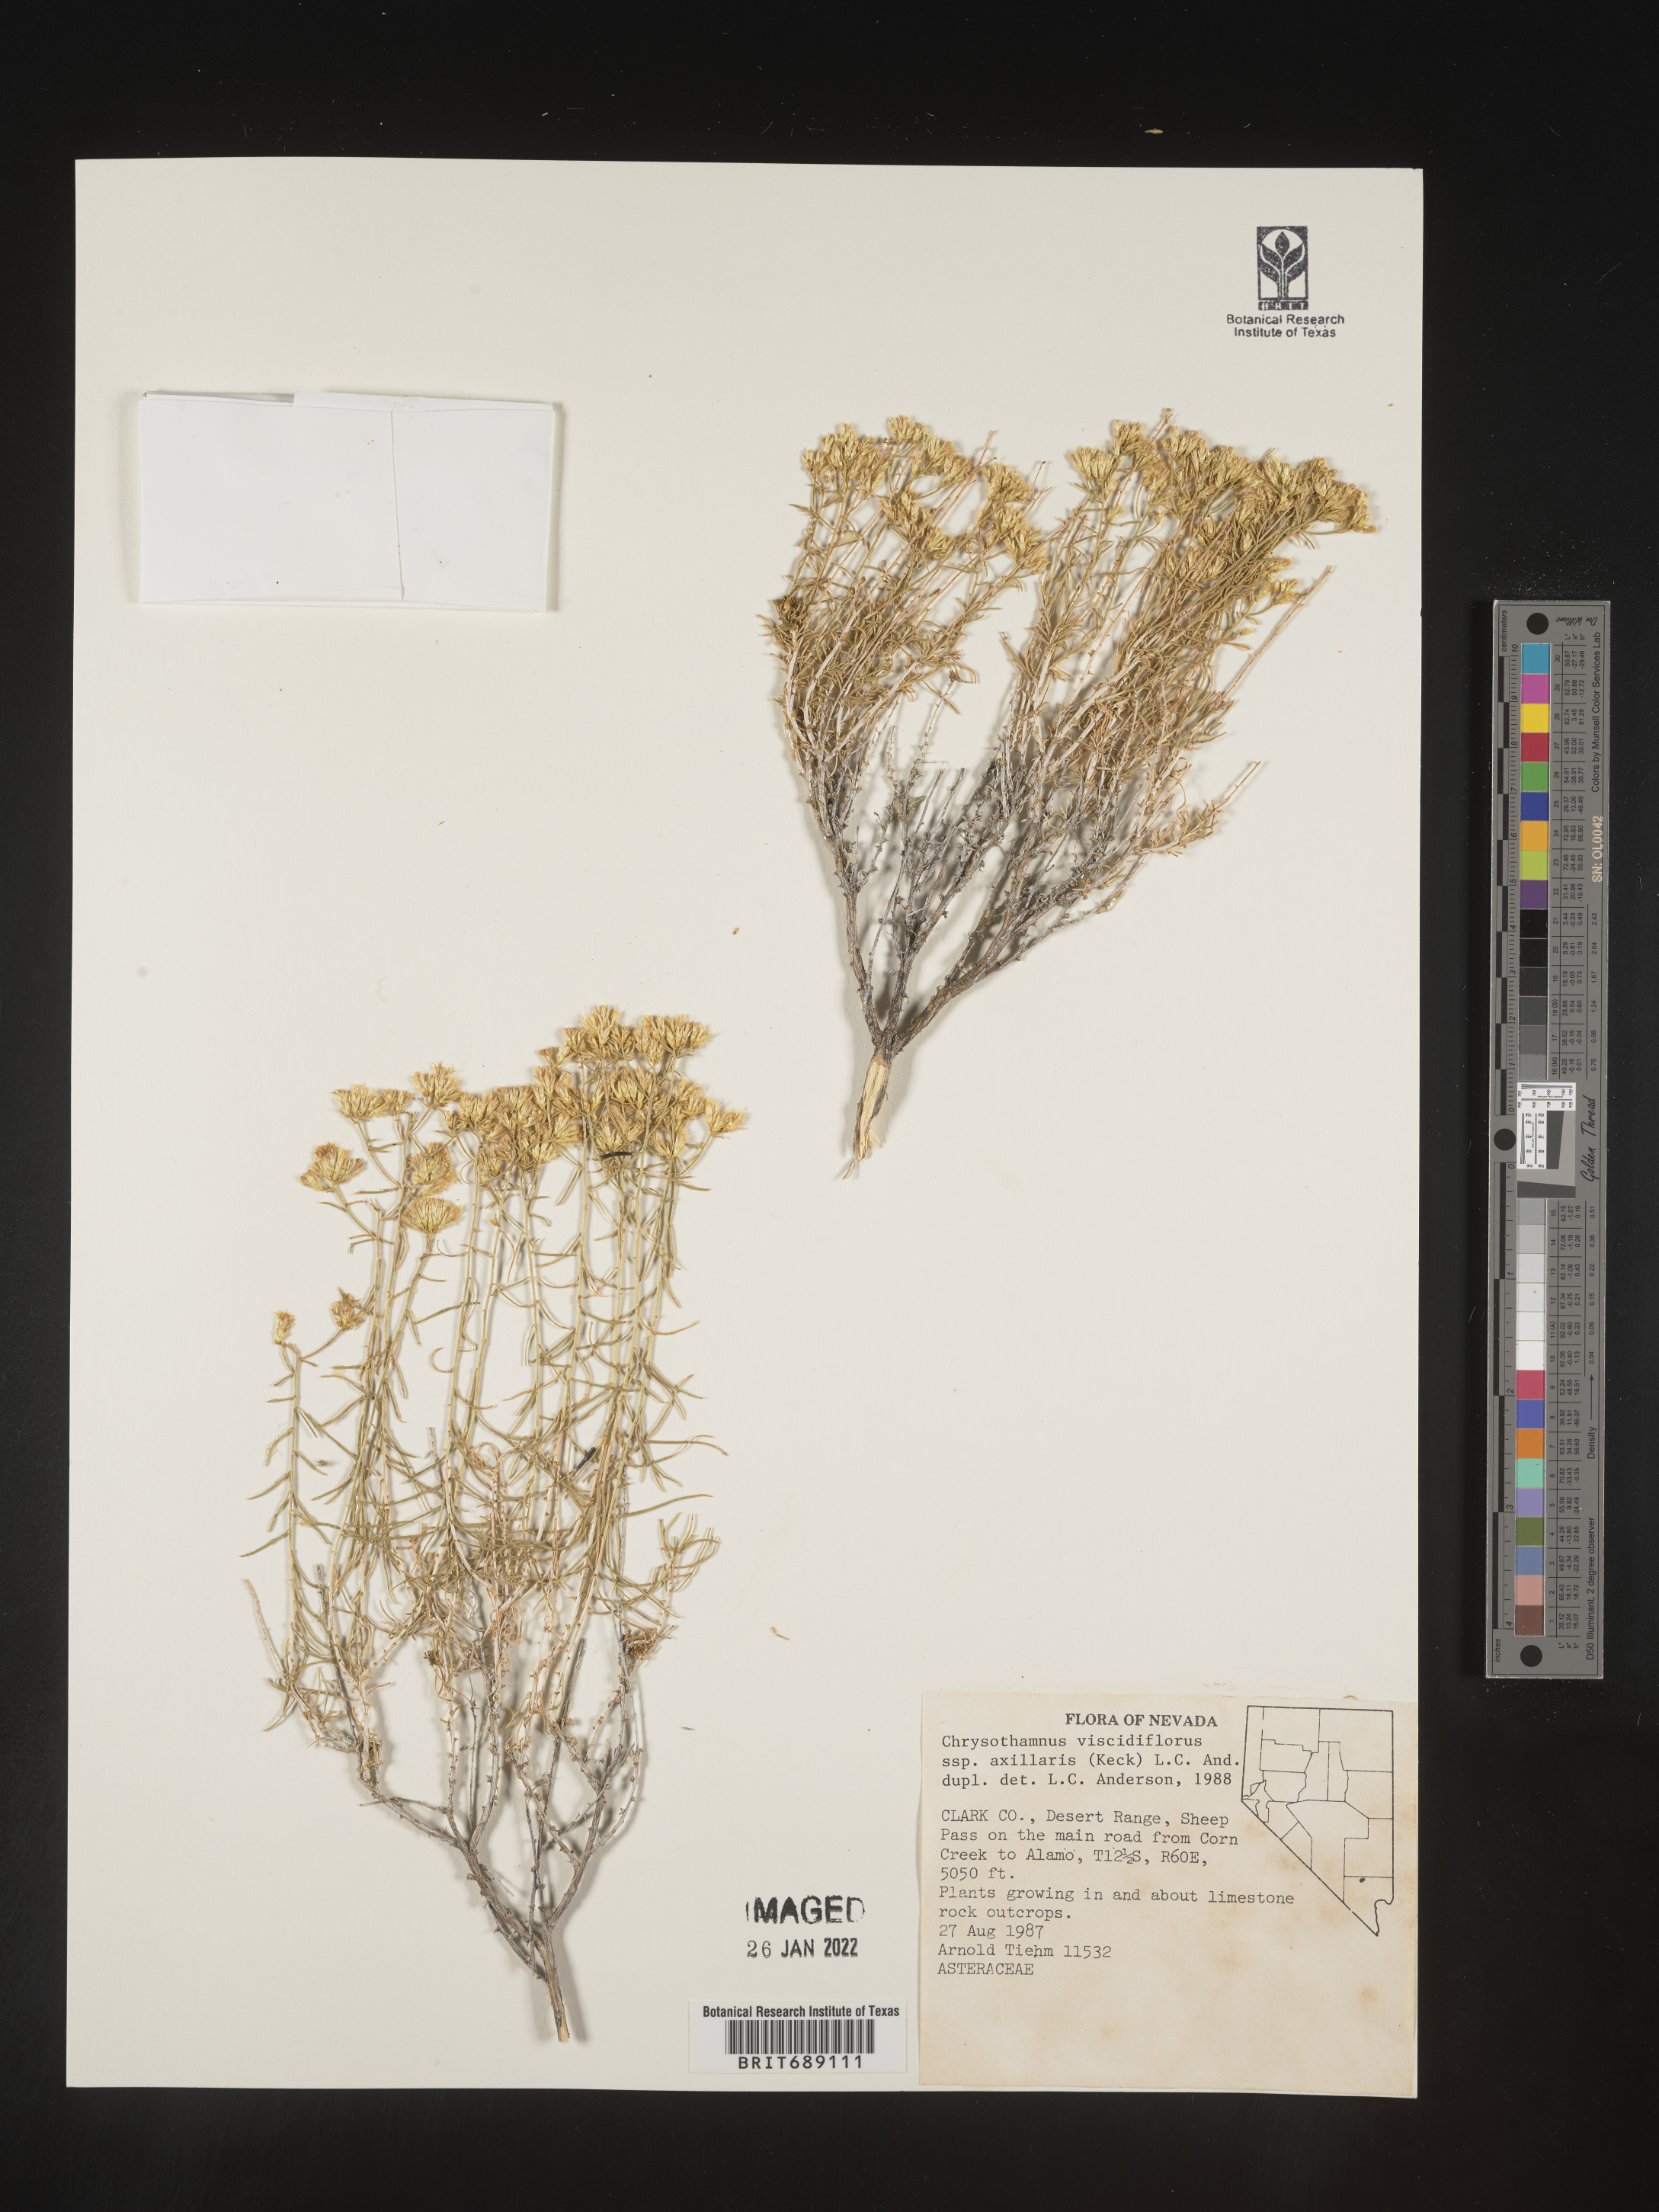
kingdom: Plantae
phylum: Tracheophyta
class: Magnoliopsida
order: Asterales
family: Asteraceae
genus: Chrysothamnus
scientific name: Chrysothamnus viscidiflorus
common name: Yellow rabbitbrush
